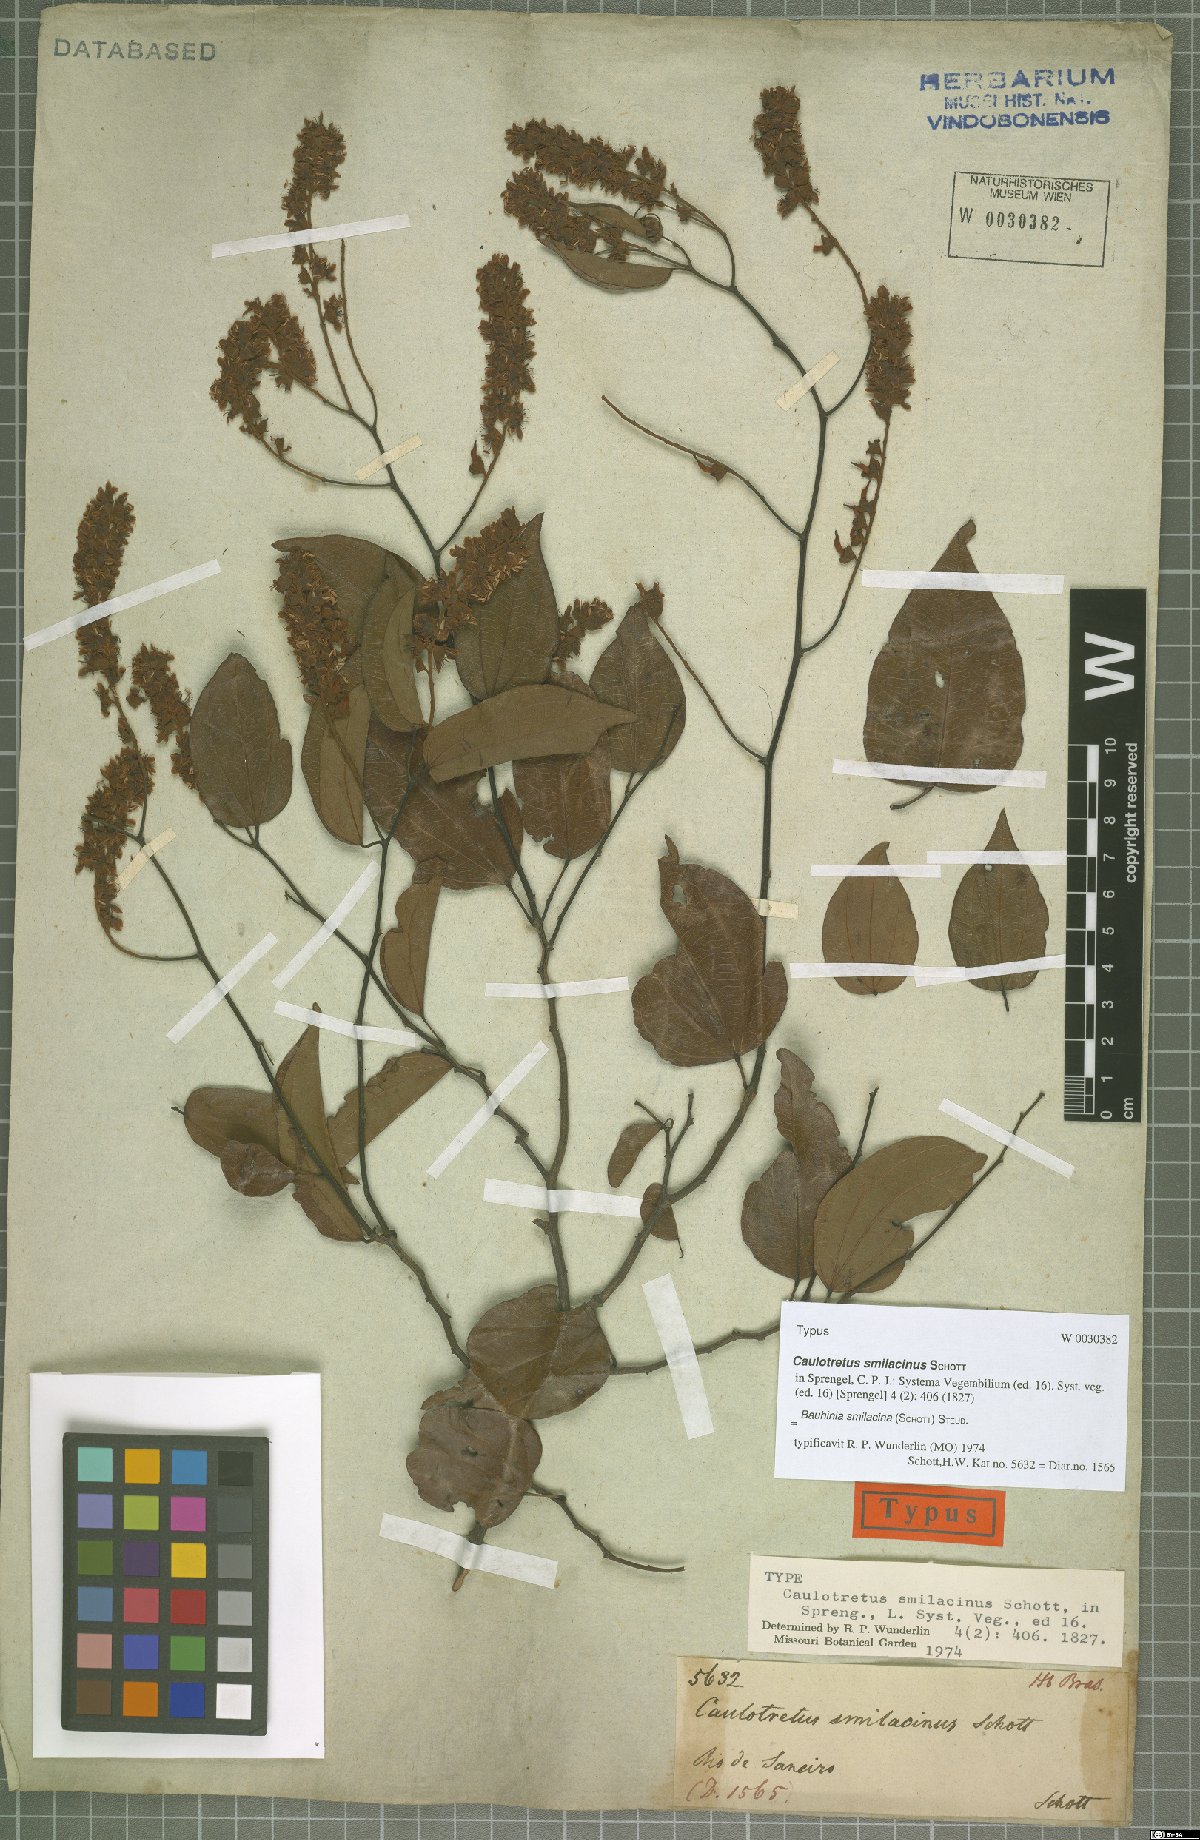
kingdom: Plantae
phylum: Tracheophyta
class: Magnoliopsida
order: Fabales
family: Fabaceae
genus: Schnella
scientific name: Schnella smilacina
